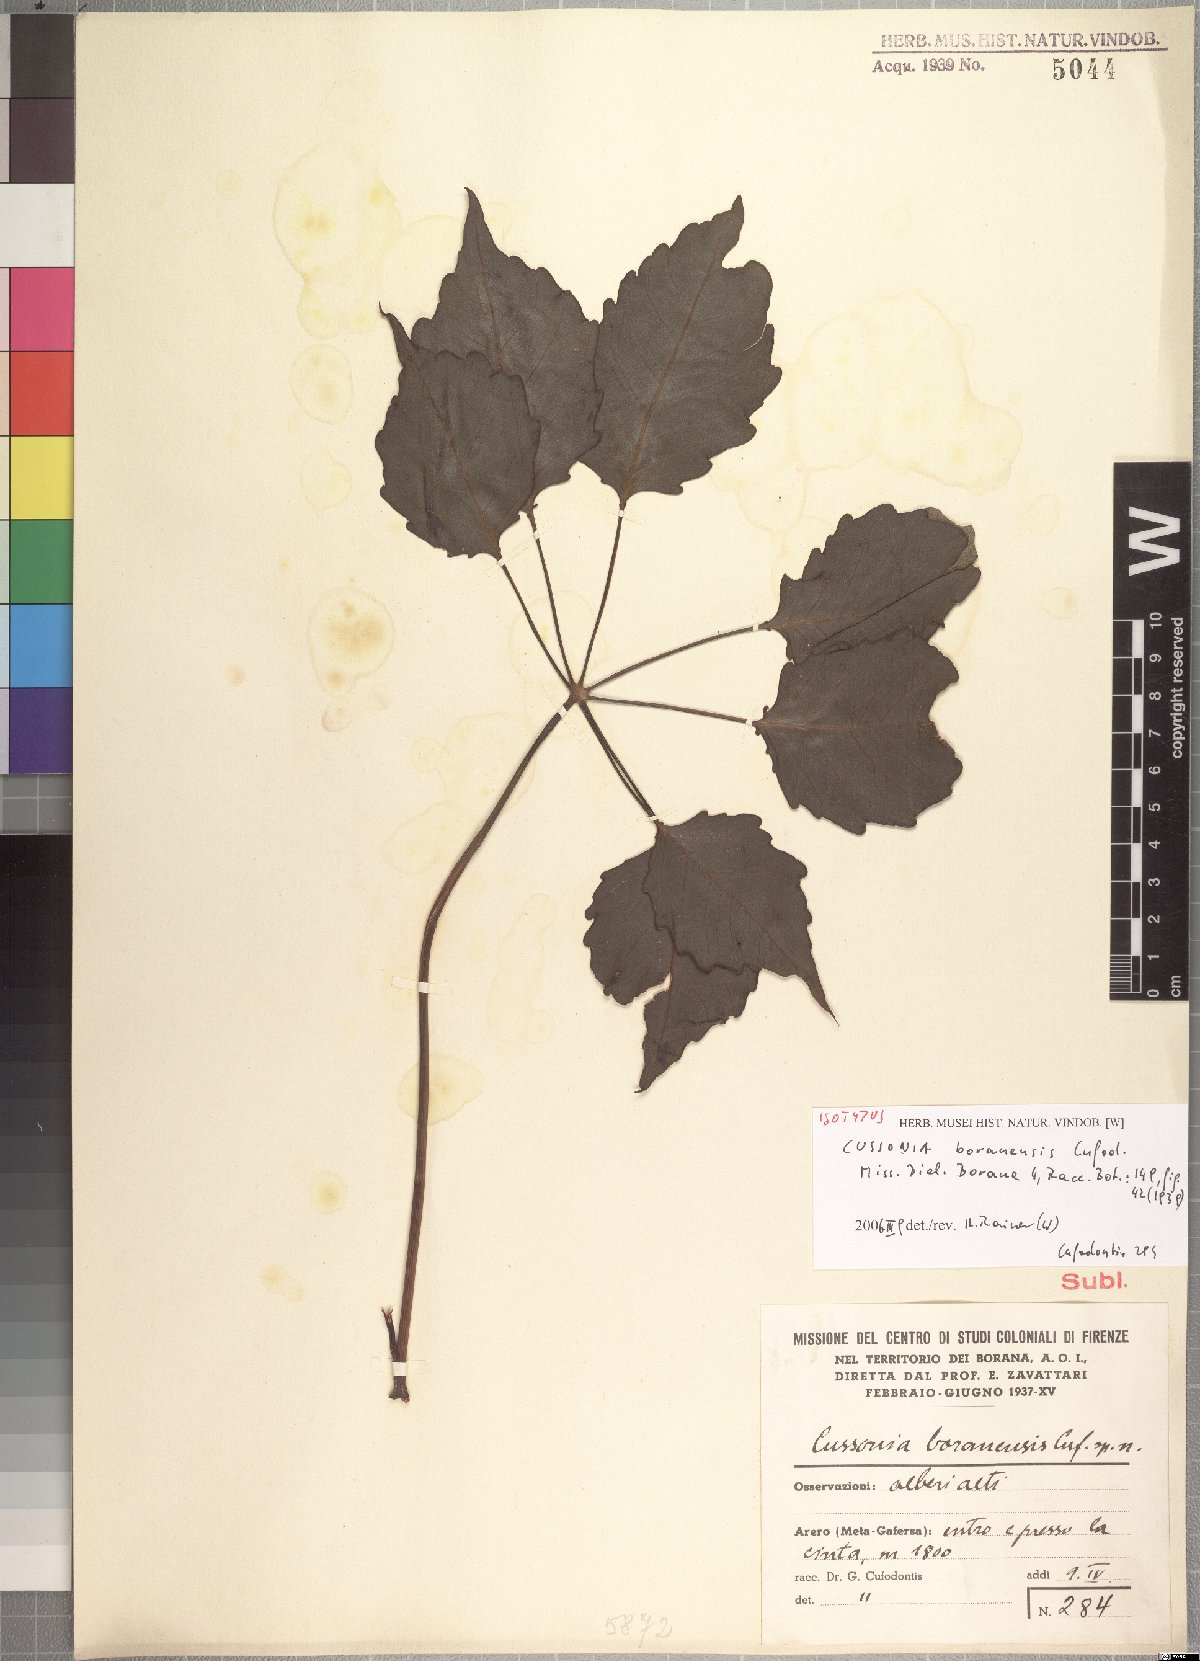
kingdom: Plantae
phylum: Tracheophyta
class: Magnoliopsida
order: Apiales
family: Araliaceae
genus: Cussonia
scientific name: Cussonia holstii
